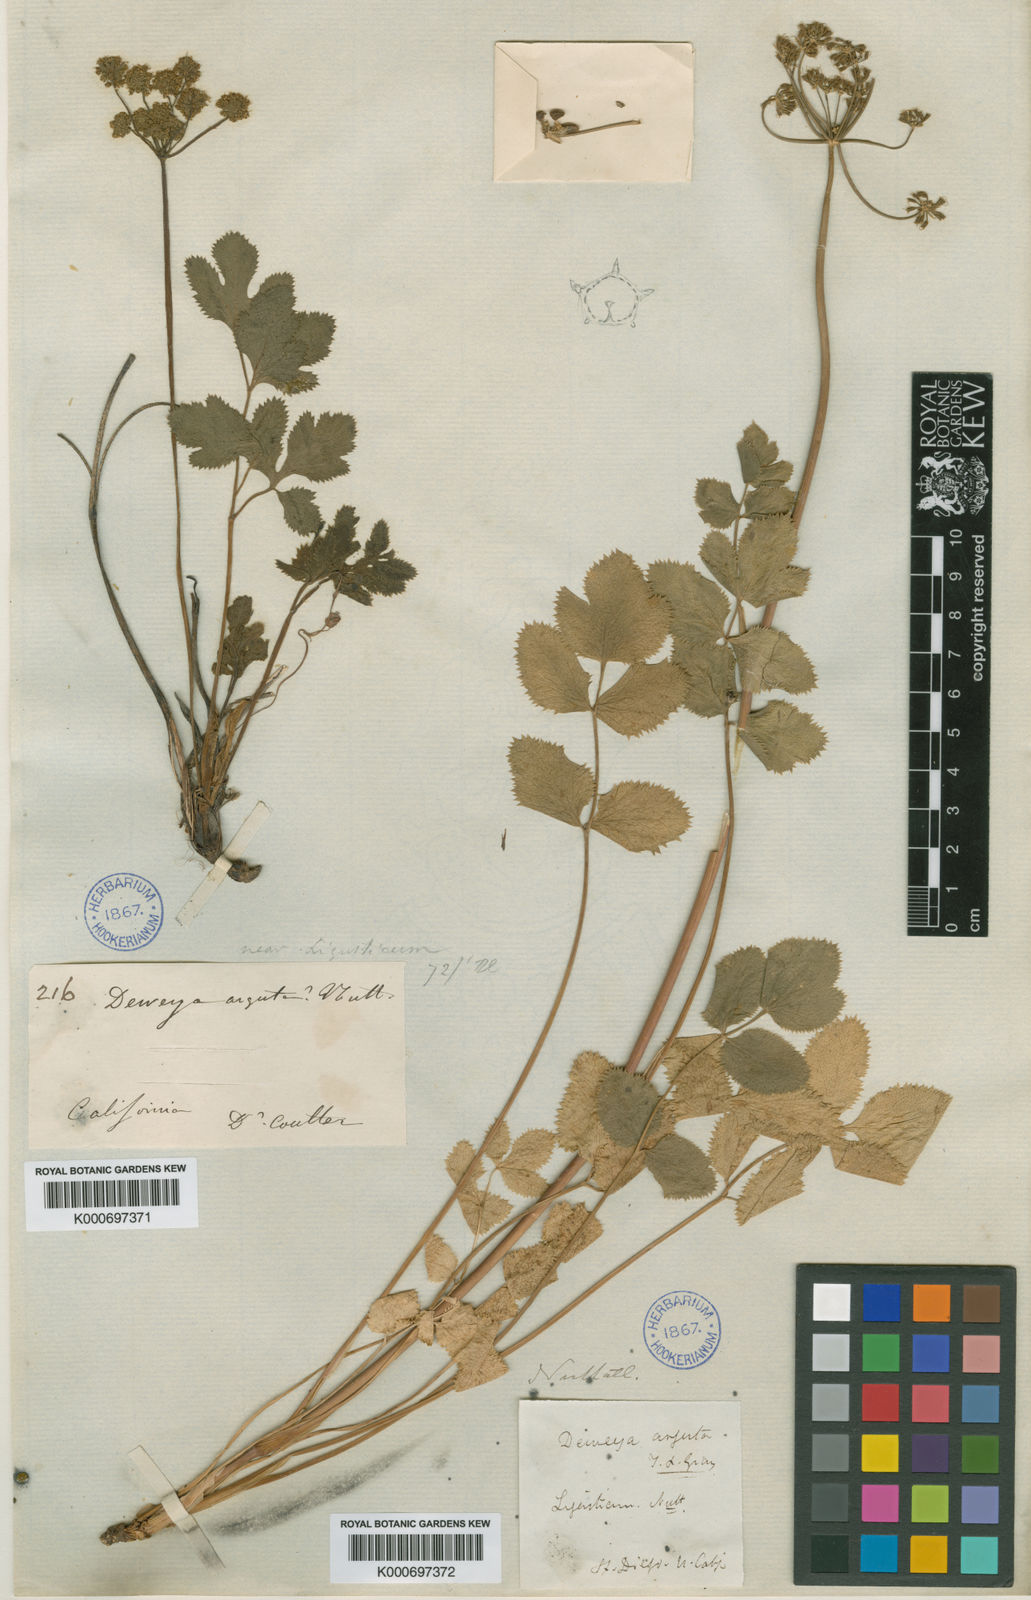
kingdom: Plantae
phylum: Tracheophyta
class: Magnoliopsida
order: Apiales
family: Apiaceae
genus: Tauschia
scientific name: Tauschia arguta
